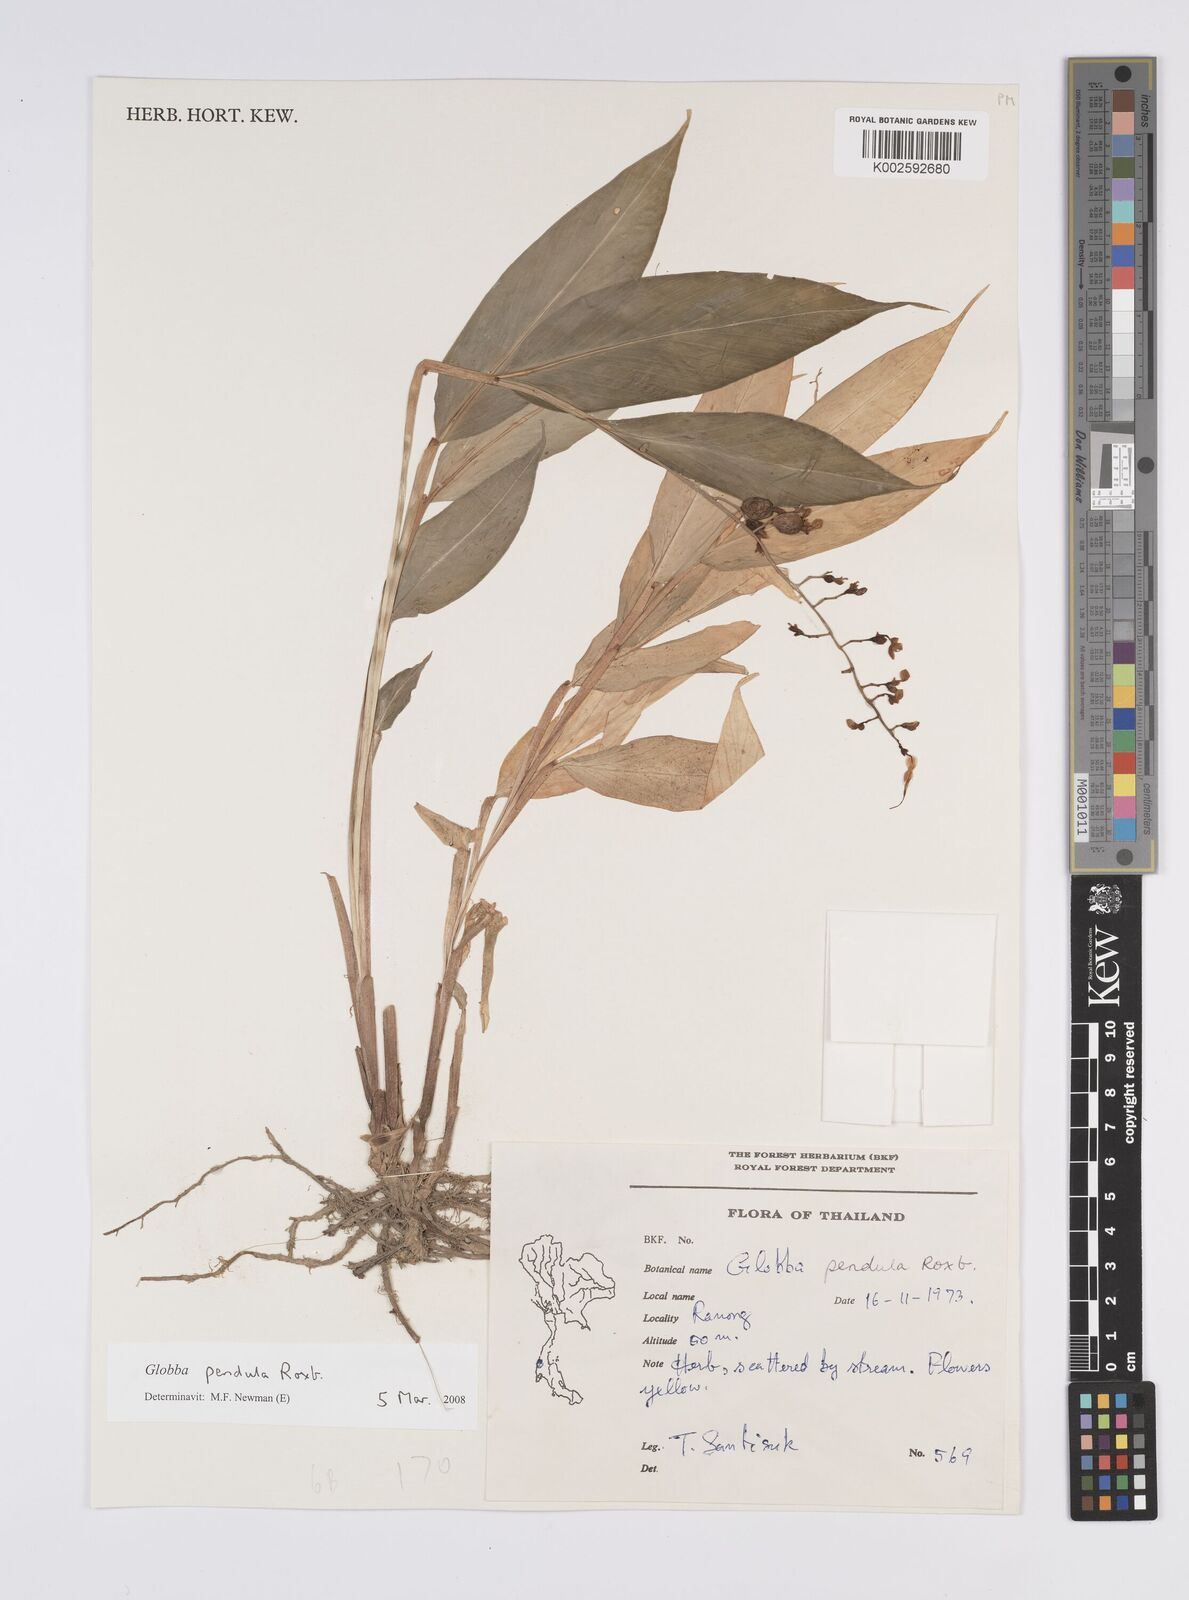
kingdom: Plantae
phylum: Tracheophyta
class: Liliopsida
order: Zingiberales
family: Zingiberaceae
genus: Globba
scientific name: Globba pendula
